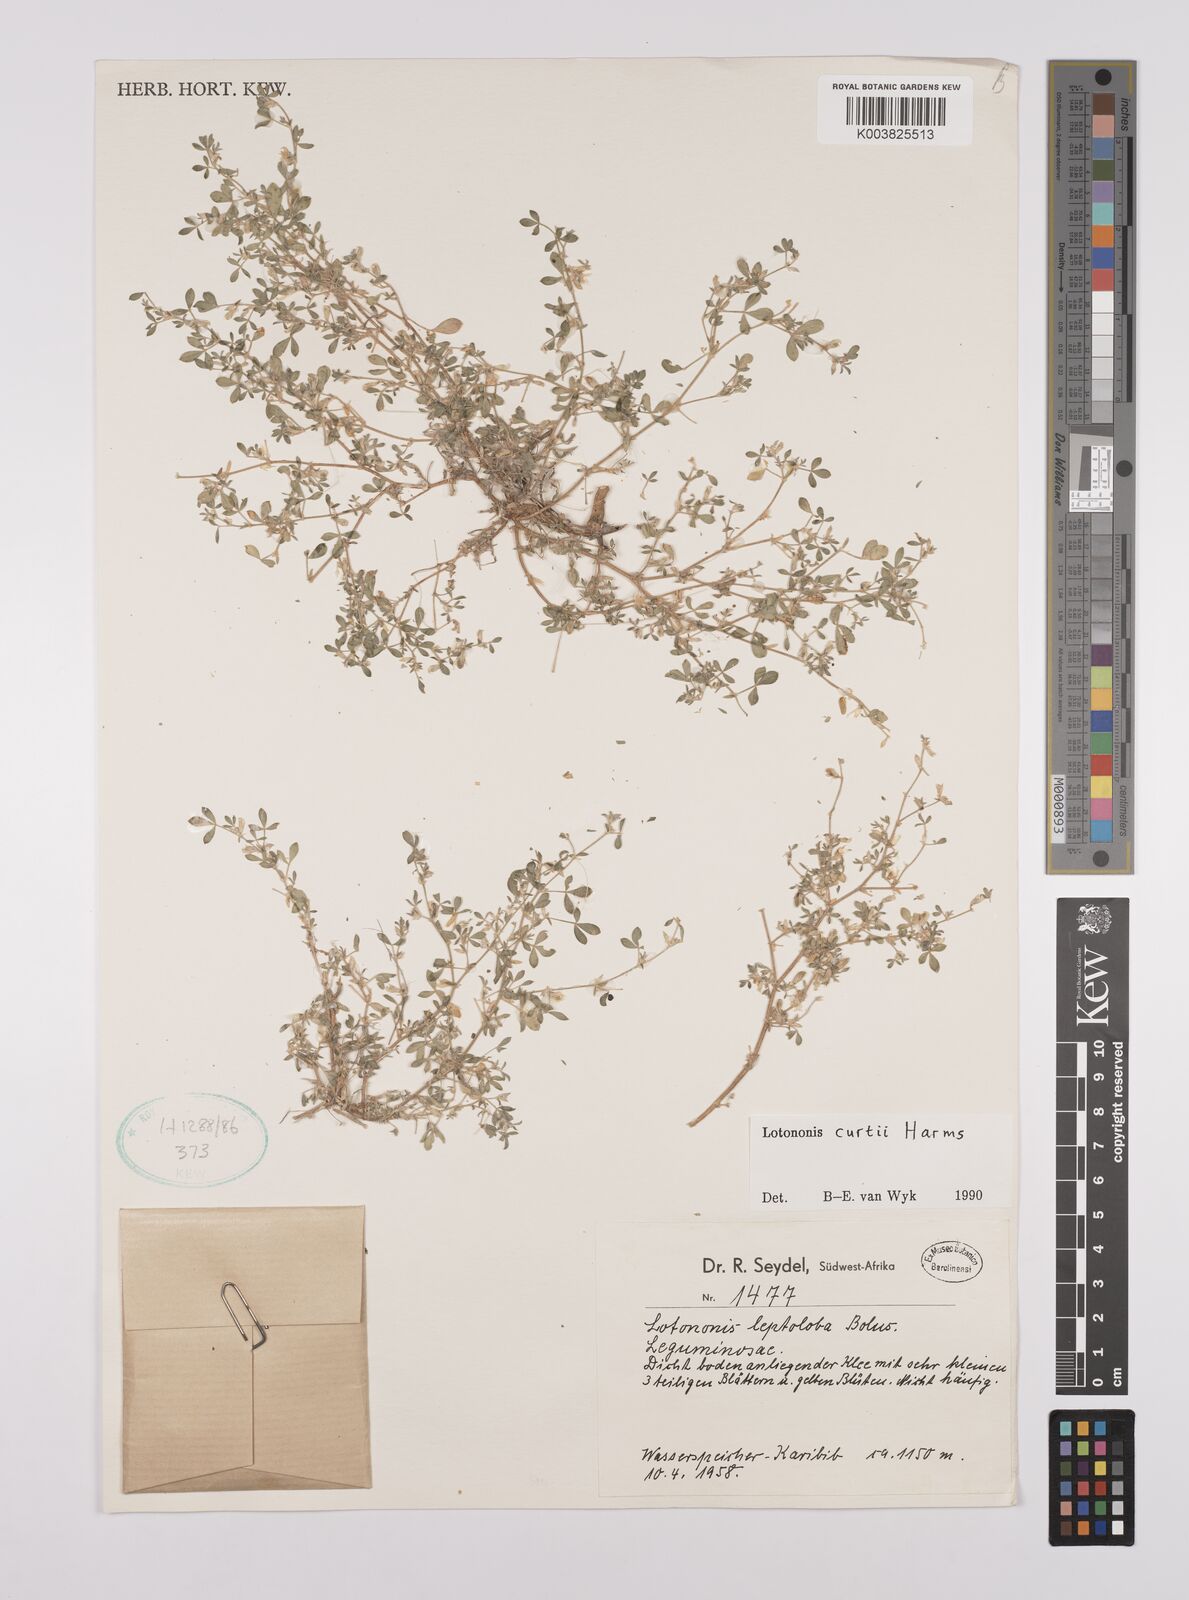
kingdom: Plantae
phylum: Tracheophyta
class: Magnoliopsida
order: Fabales
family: Fabaceae
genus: Lotononis
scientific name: Lotononis curtii
